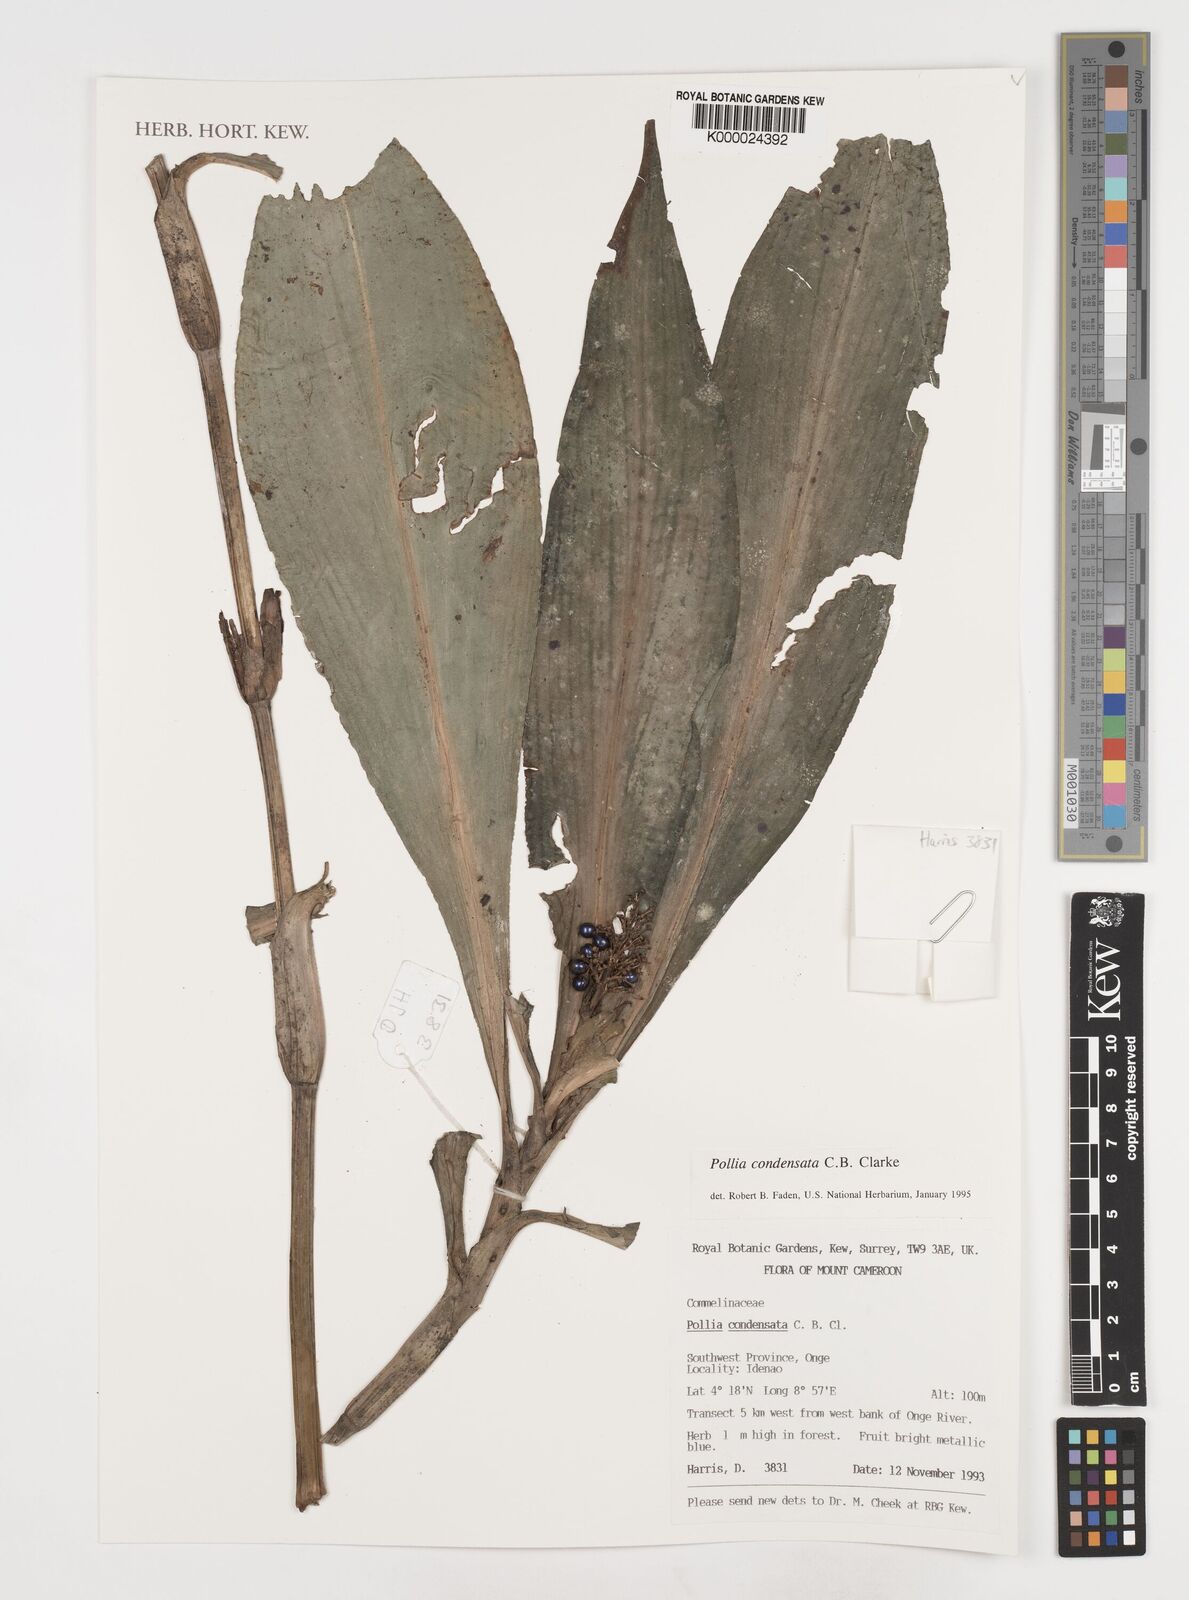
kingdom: Plantae
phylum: Tracheophyta
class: Liliopsida
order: Commelinales
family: Commelinaceae
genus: Pollia
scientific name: Pollia condensata
